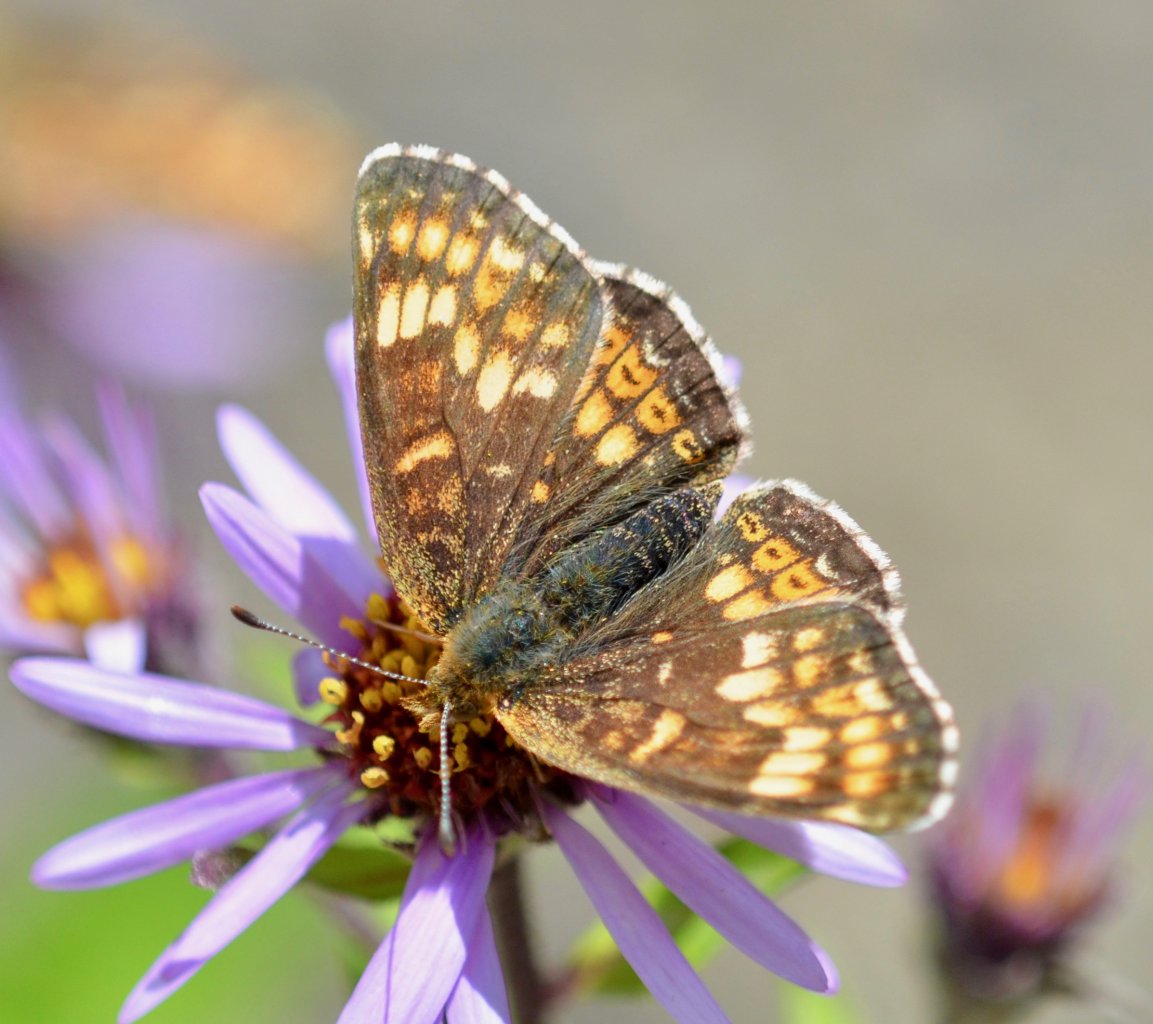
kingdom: Animalia
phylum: Arthropoda
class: Insecta
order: Lepidoptera
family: Nymphalidae
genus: Phyciodes
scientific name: Phyciodes tharos
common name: Field Crescent
